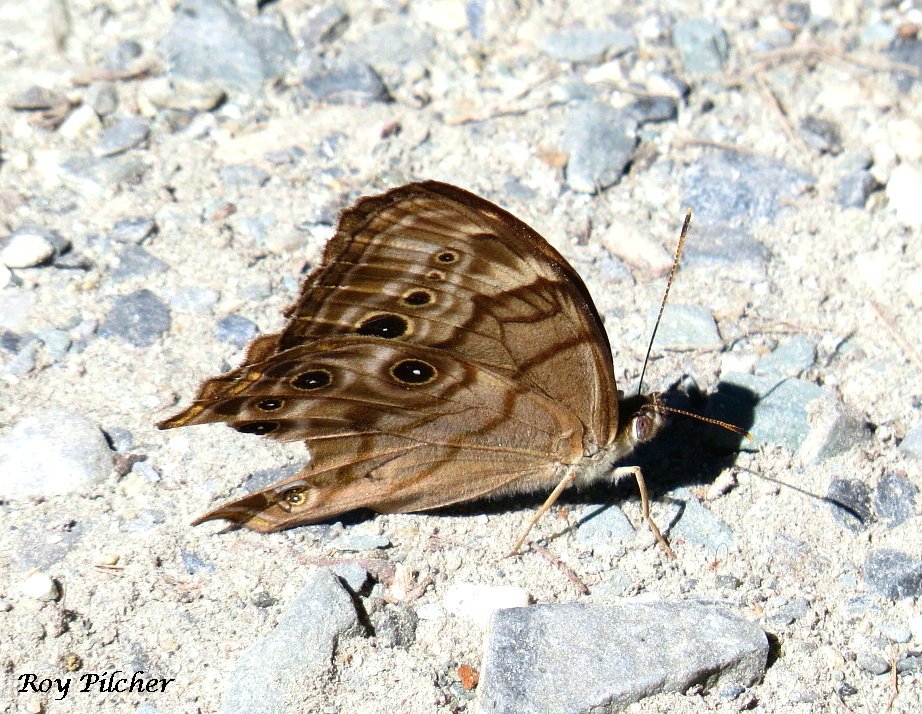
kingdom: Animalia
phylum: Arthropoda
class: Insecta
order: Lepidoptera
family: Nymphalidae
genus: Lethe
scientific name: Lethe anthedon
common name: Northern Pearly-Eye
